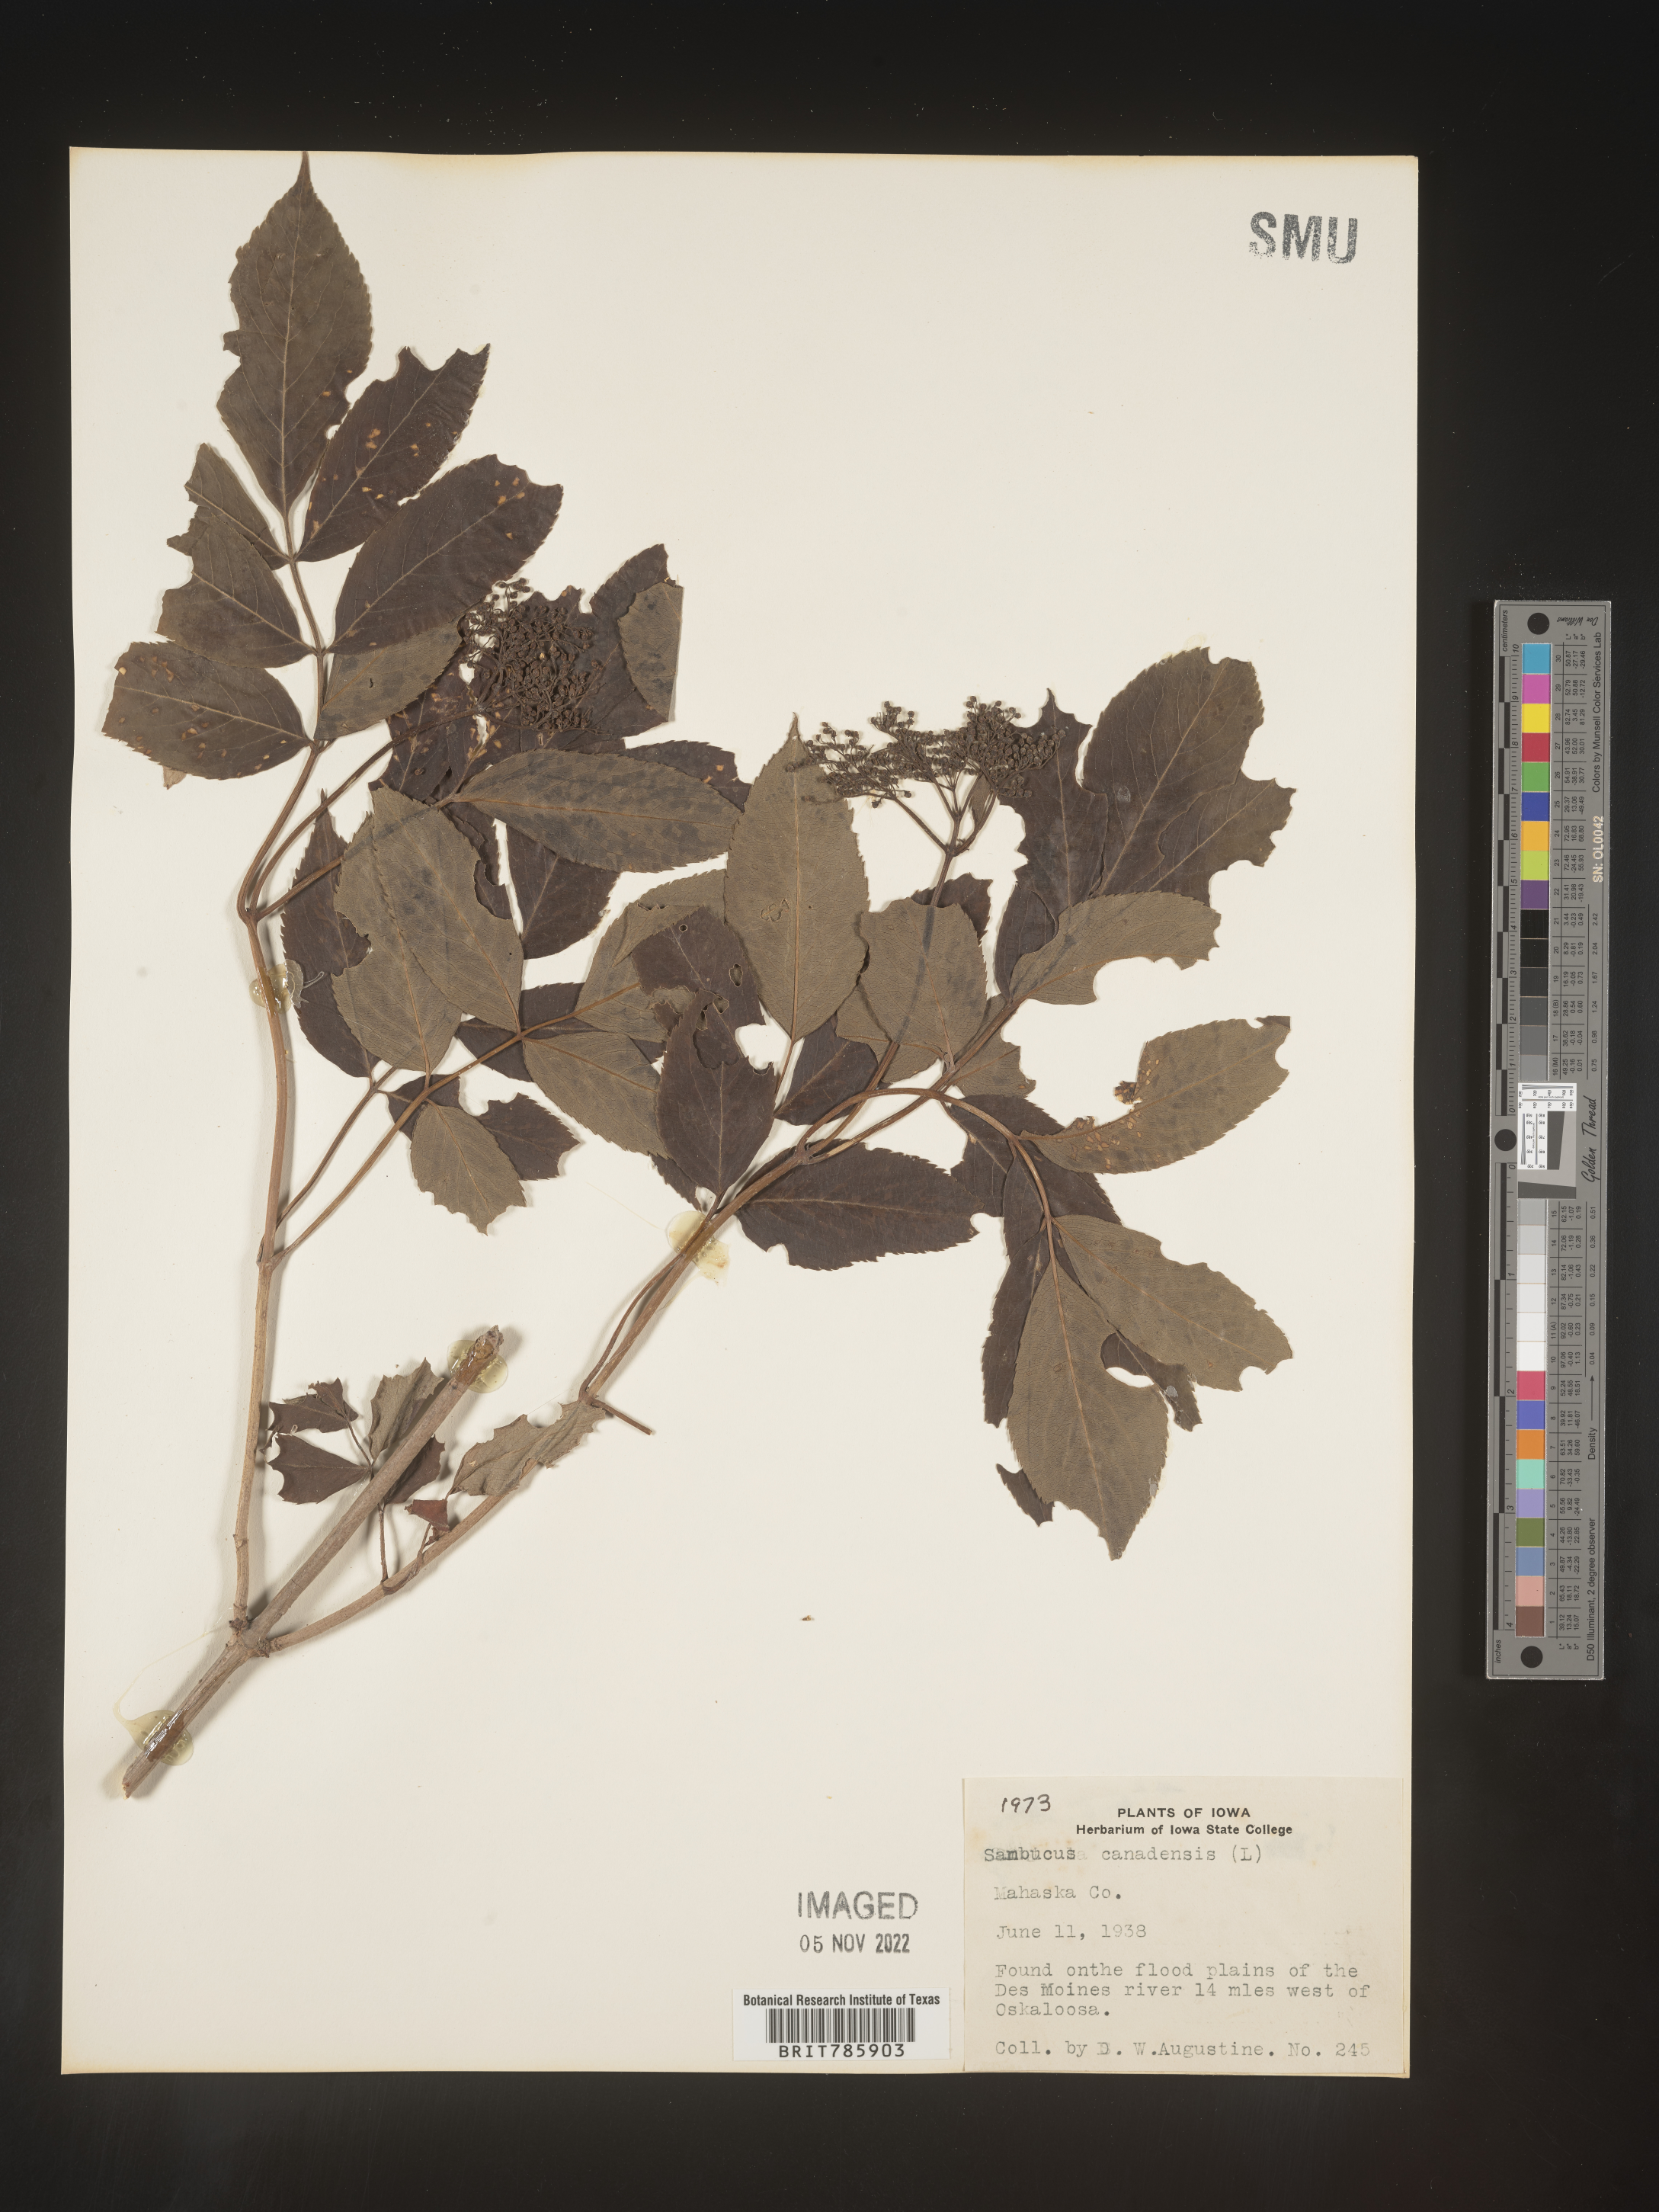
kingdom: Plantae
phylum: Tracheophyta
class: Magnoliopsida
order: Dipsacales
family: Viburnaceae
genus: Sambucus
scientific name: Sambucus nigra
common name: Elder
